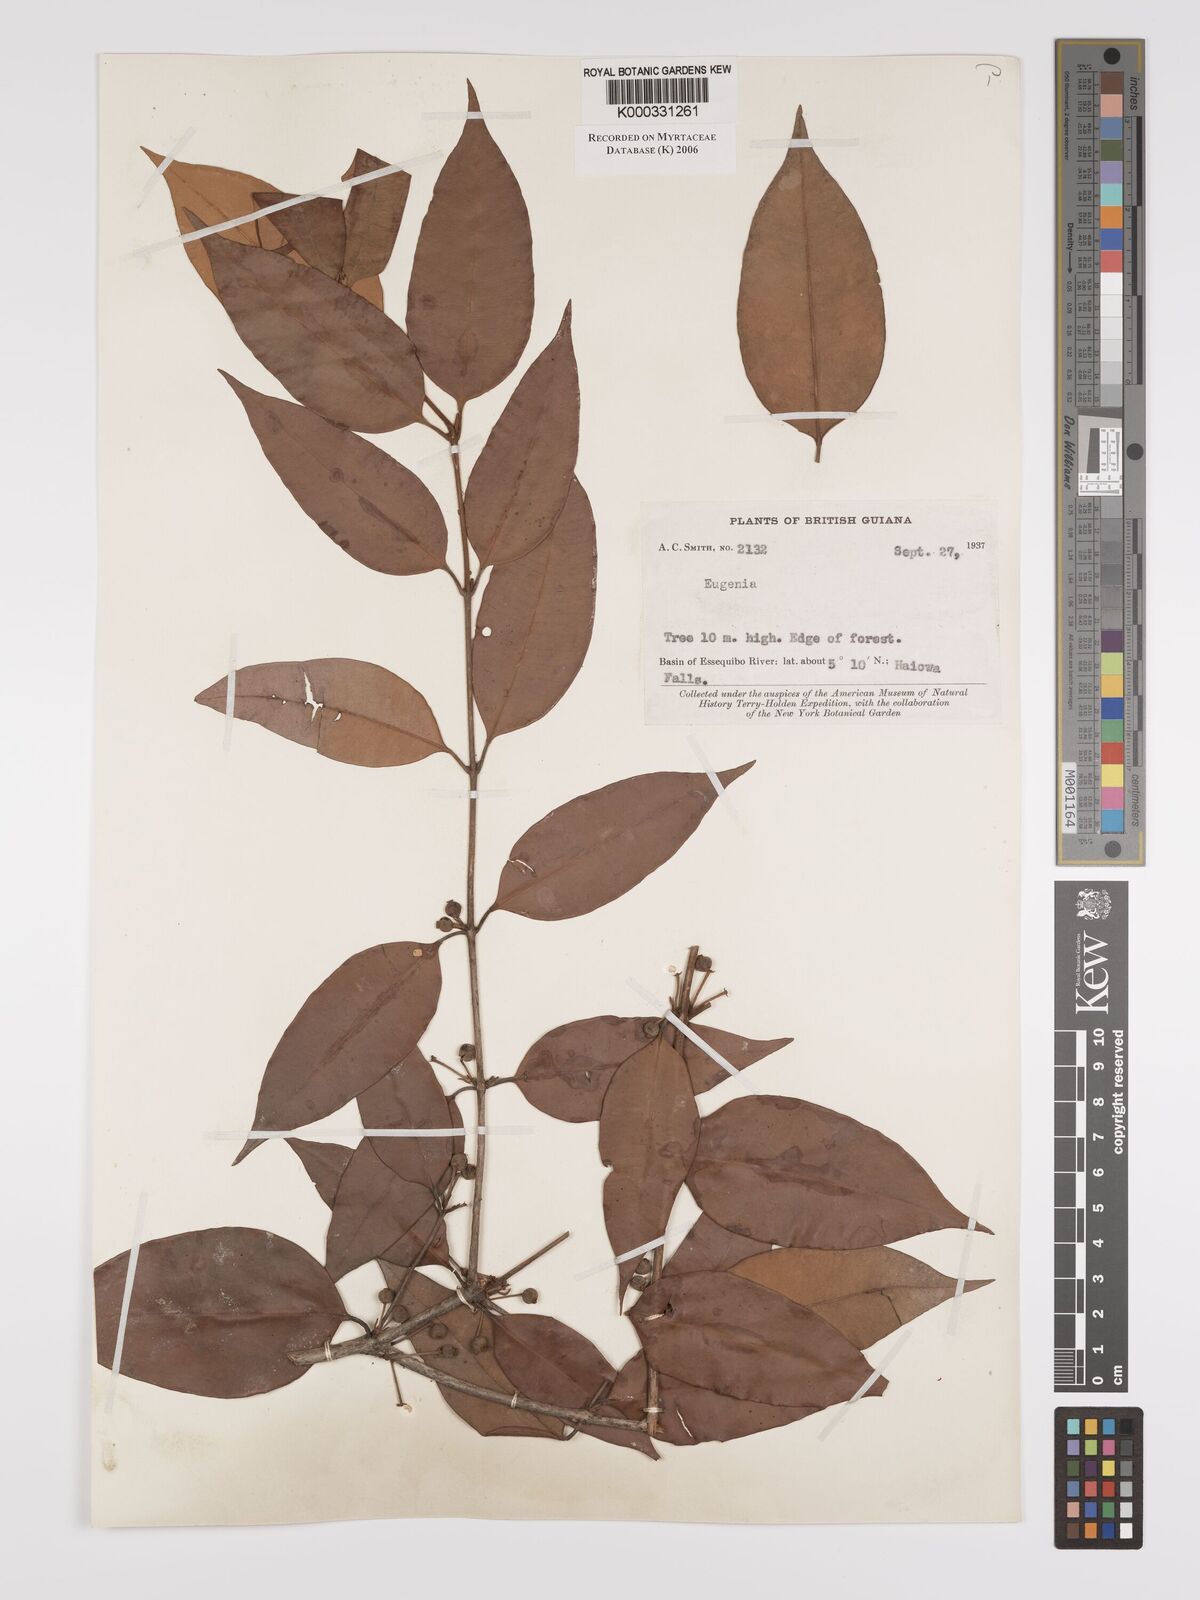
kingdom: Plantae
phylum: Tracheophyta
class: Magnoliopsida
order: Myrtales
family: Myrtaceae
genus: Myrcia
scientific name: Myrcia fasciculata
